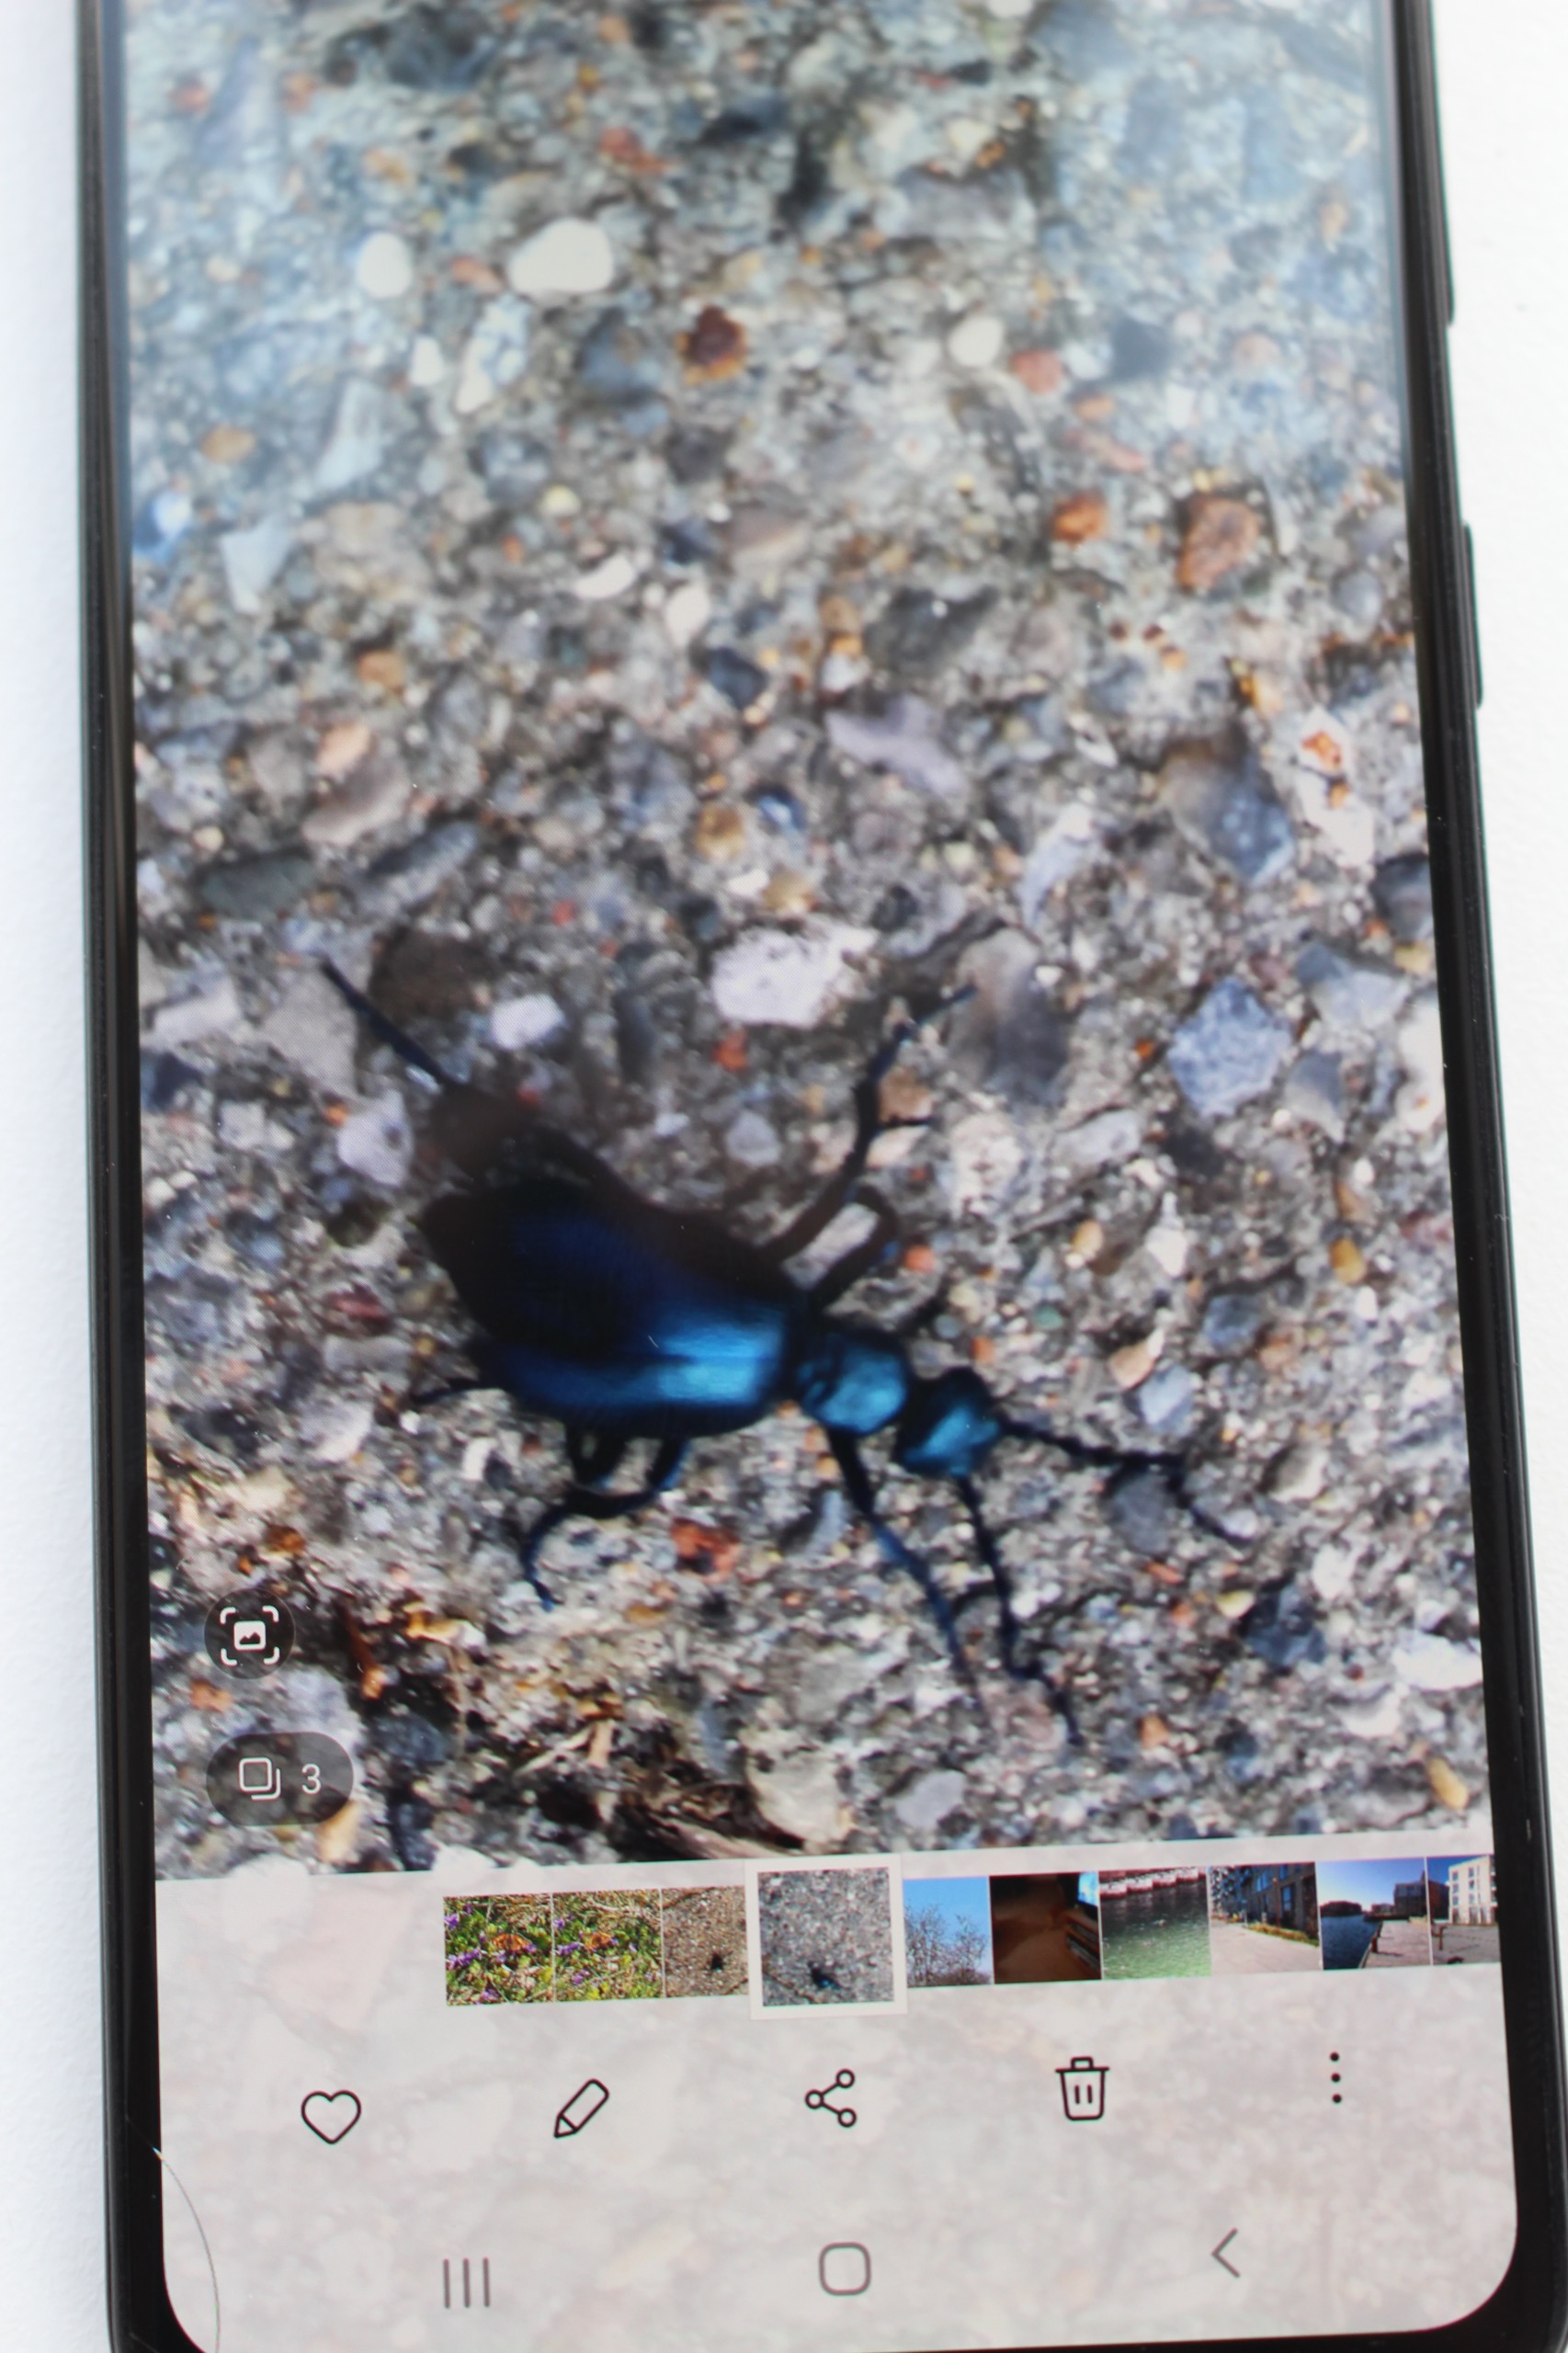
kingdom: Animalia
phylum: Arthropoda
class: Insecta
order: Coleoptera
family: Meloidae
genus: Meloe
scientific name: Meloe violaceus
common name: Blå oliebille
